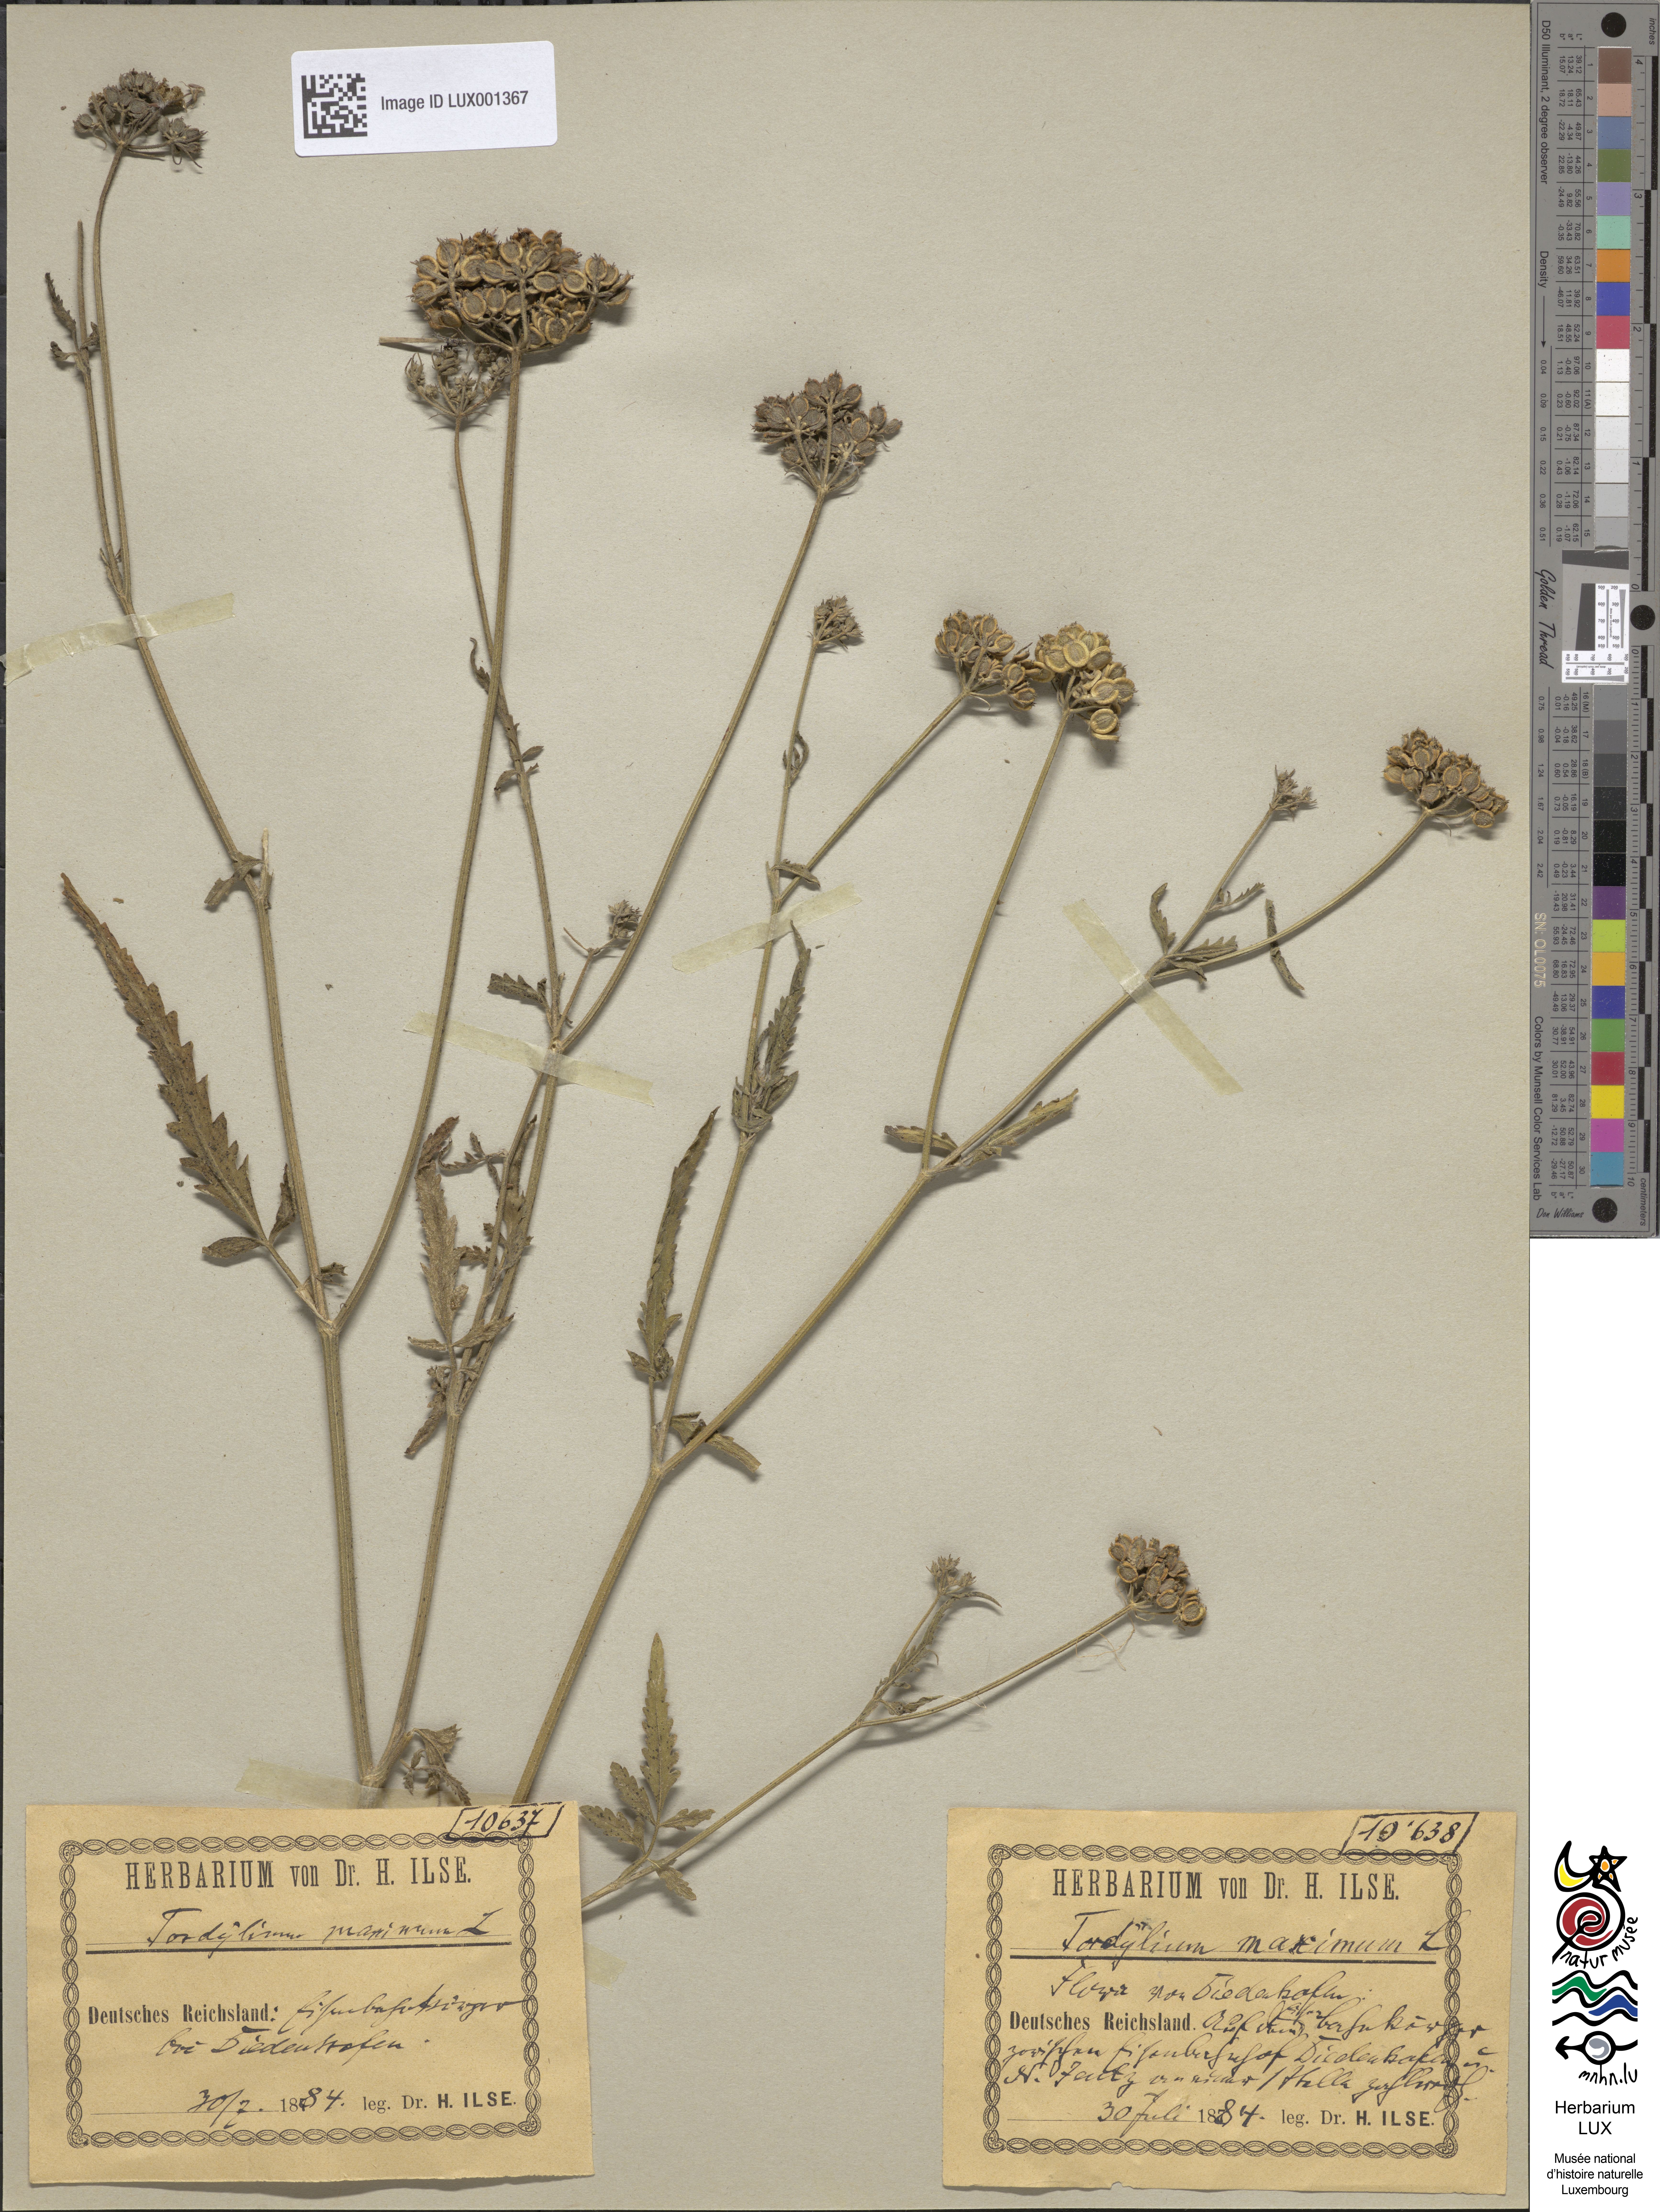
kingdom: Plantae
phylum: Tracheophyta
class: Magnoliopsida
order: Apiales
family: Apiaceae
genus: Tordylium
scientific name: Tordylium maximum
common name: Hartwort
